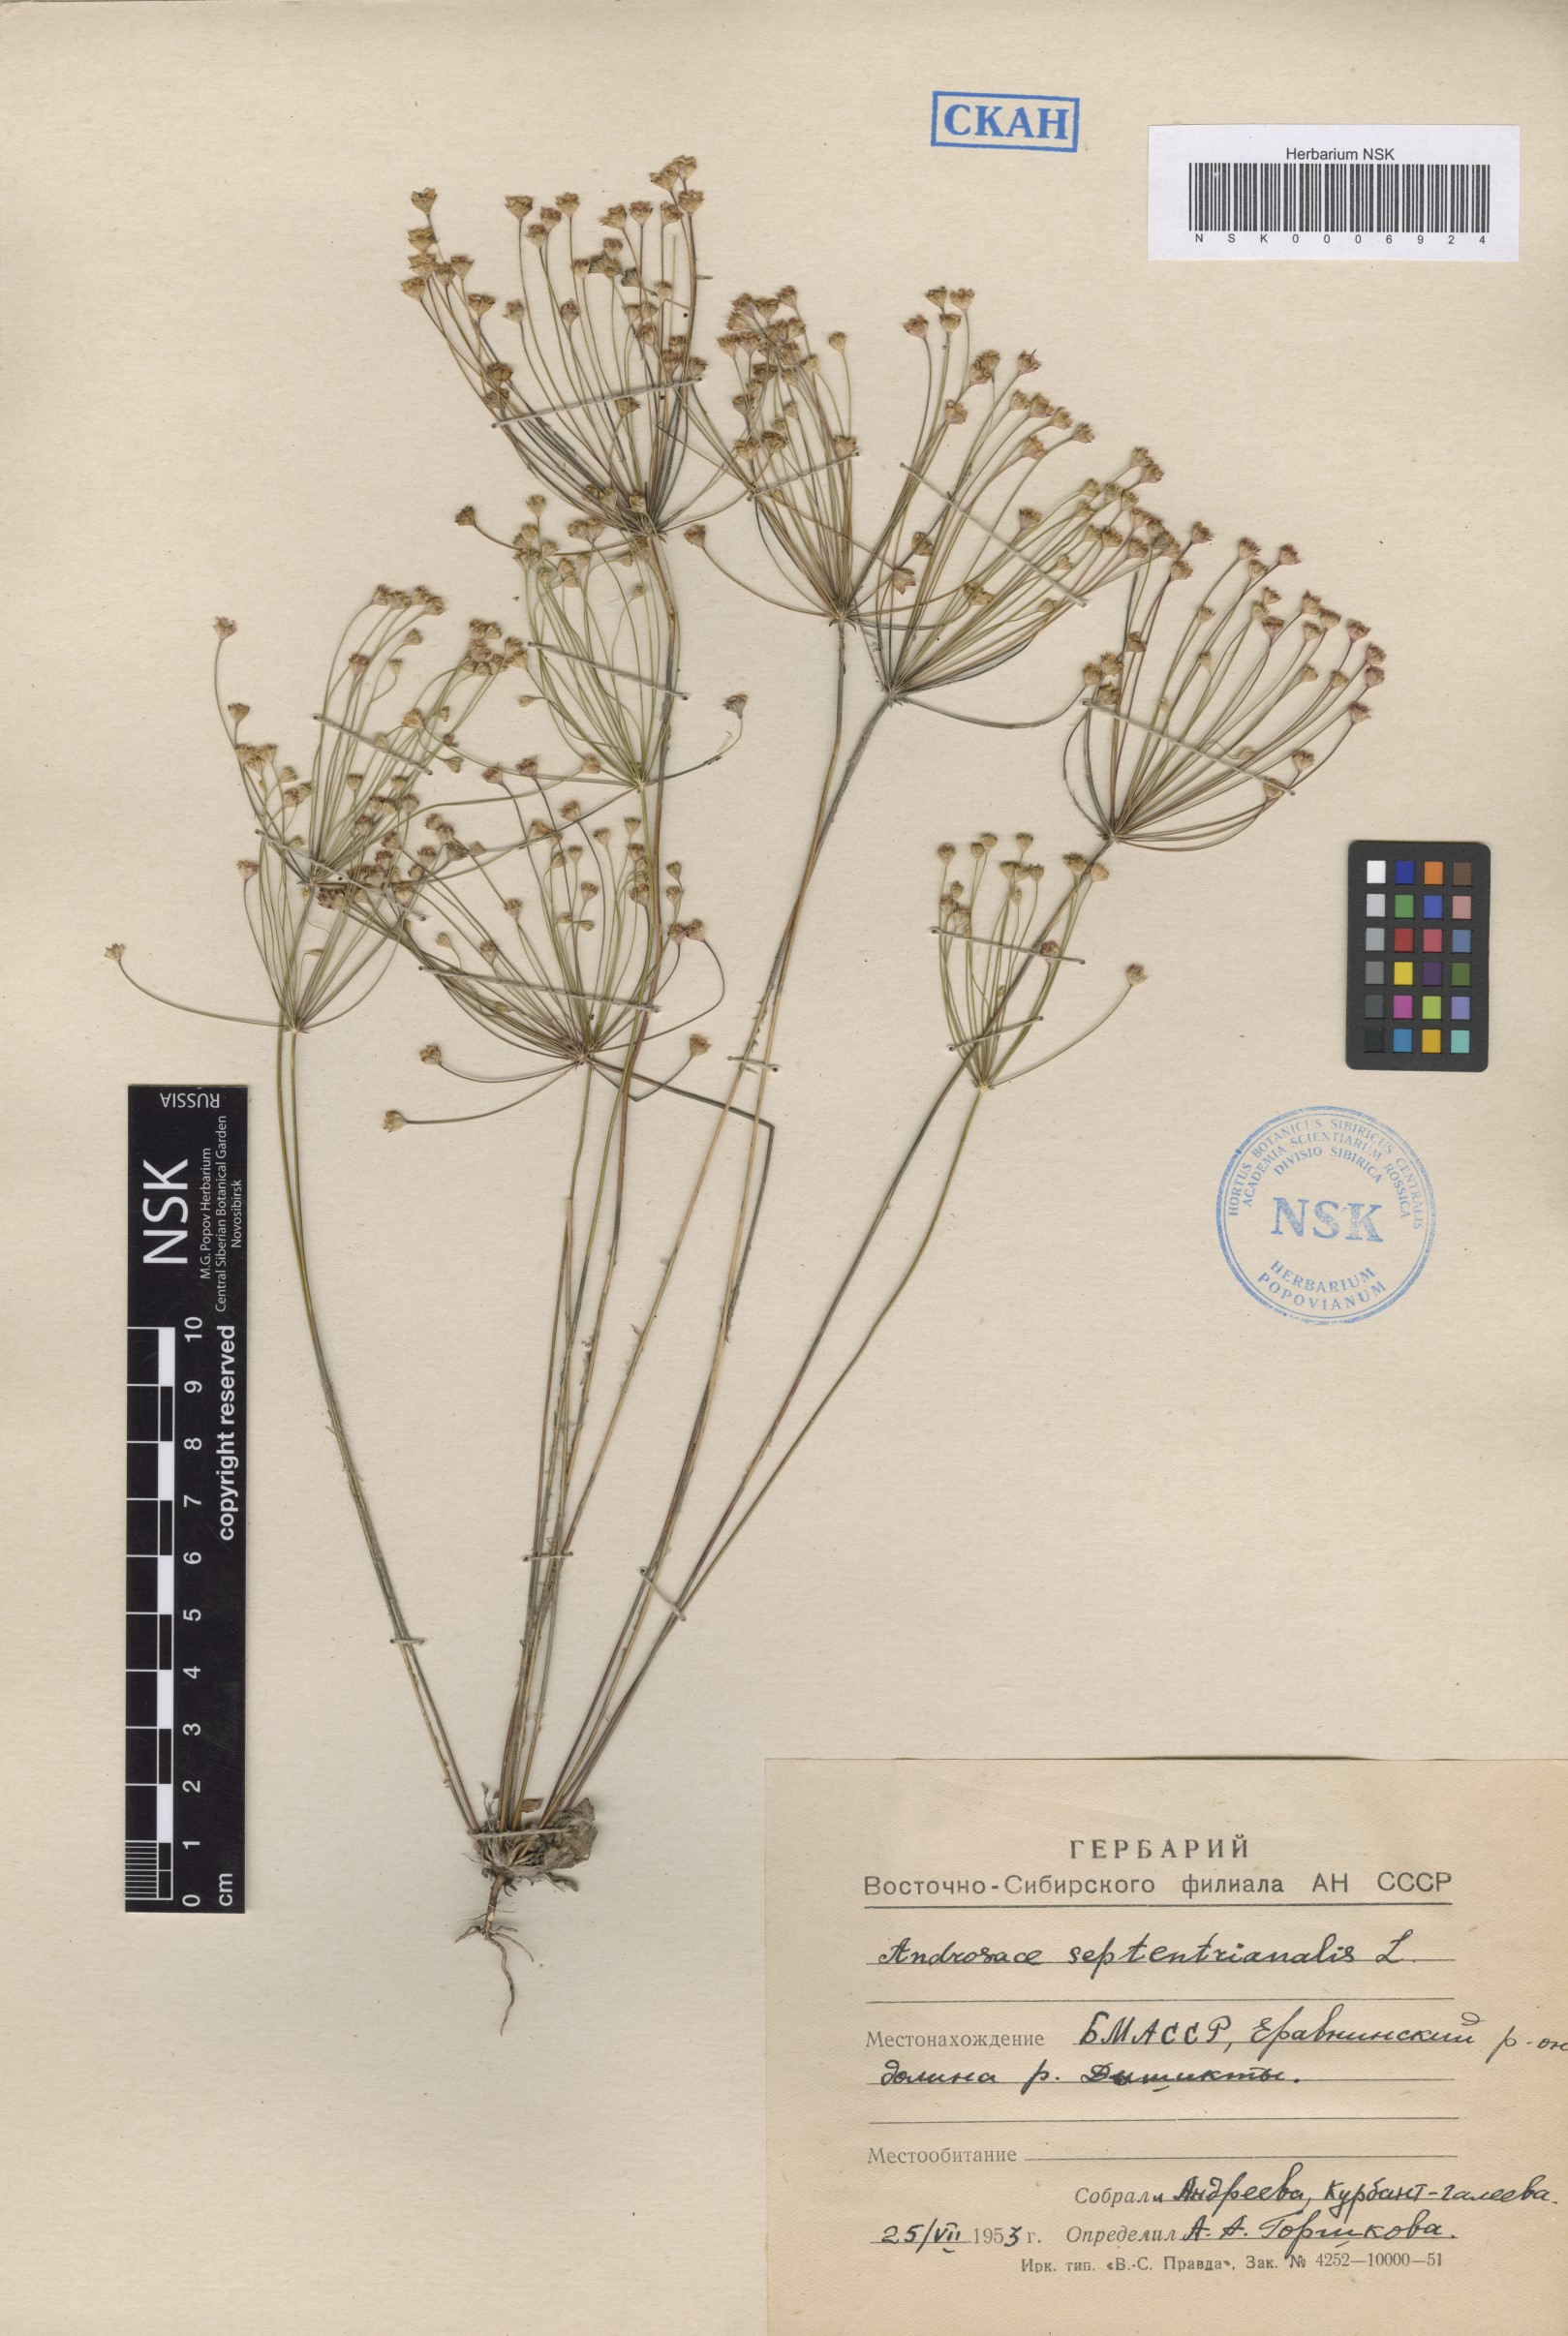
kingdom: Plantae
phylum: Tracheophyta
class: Magnoliopsida
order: Ericales
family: Primulaceae
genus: Androsace
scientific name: Androsace septentrionalis
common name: Hairy northern fairy-candelabra
